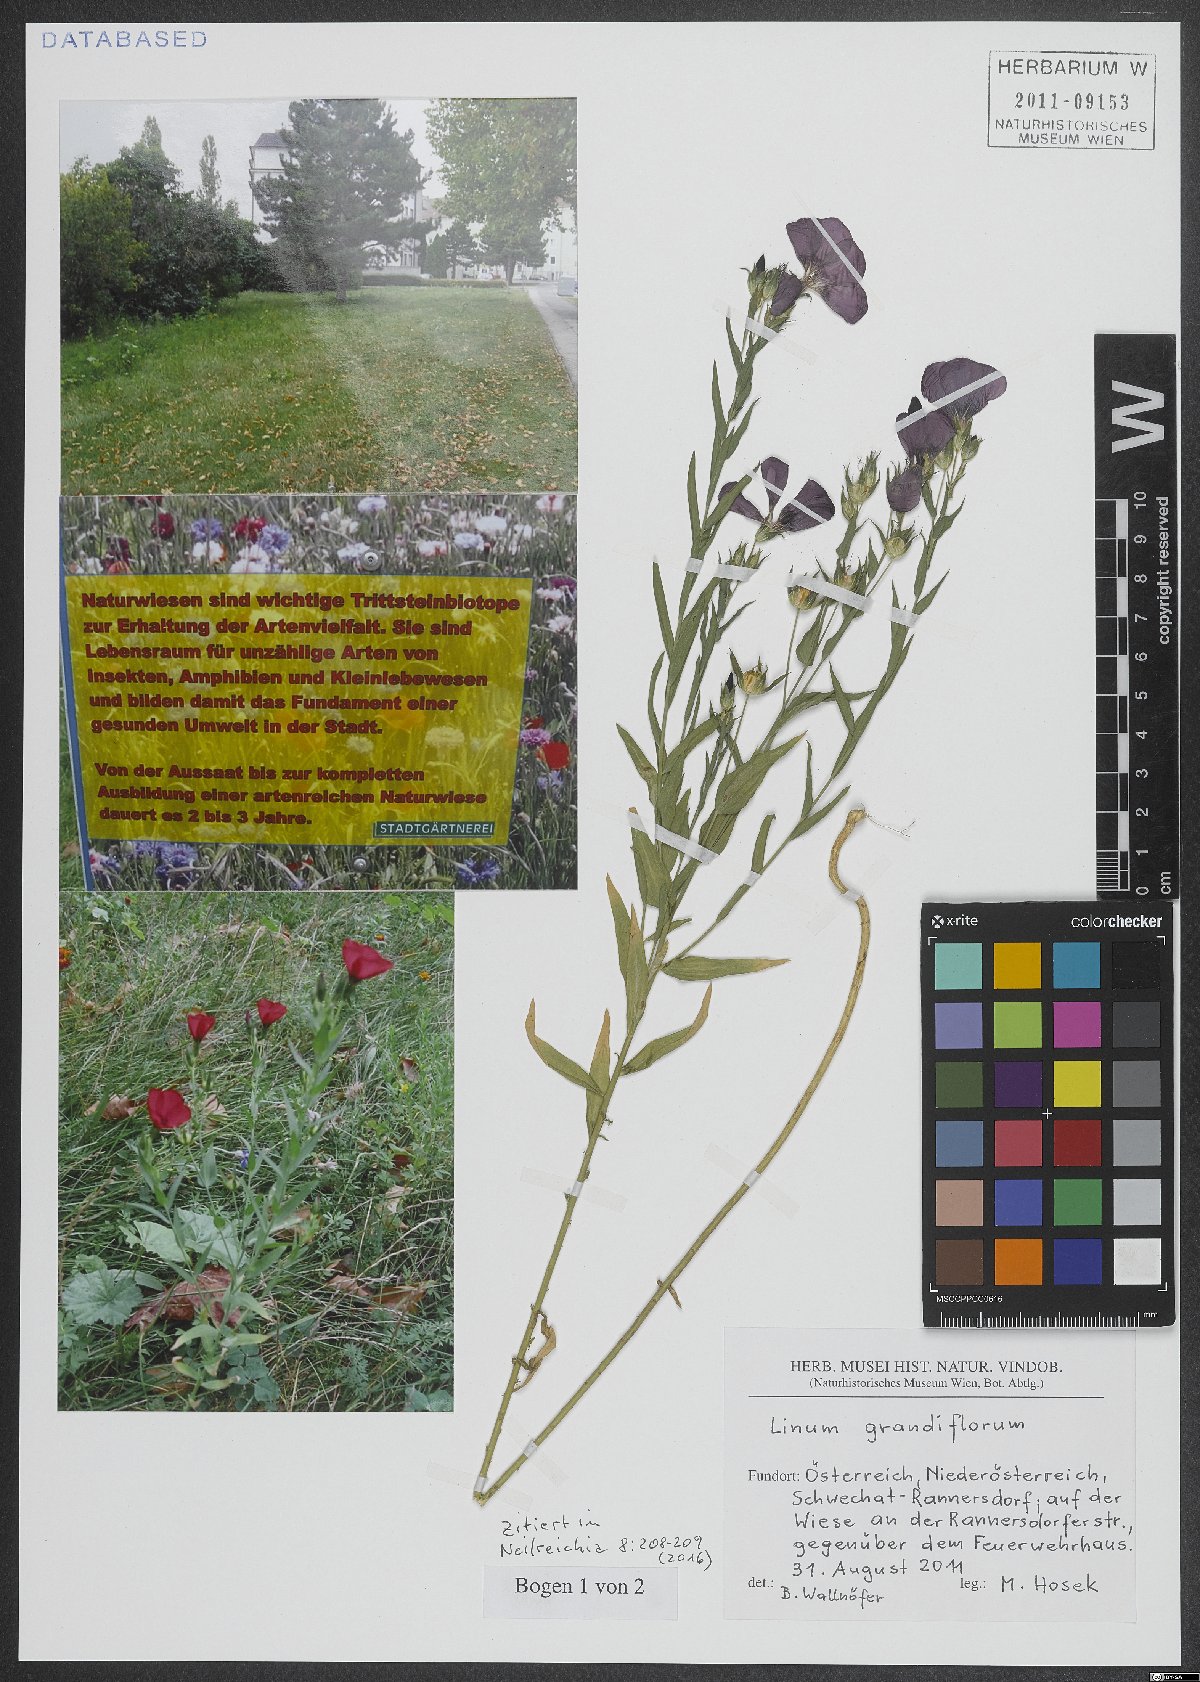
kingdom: Plantae
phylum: Tracheophyta
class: Magnoliopsida
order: Malpighiales
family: Linaceae
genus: Linum
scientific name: Linum grandiflorum
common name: Crimson flax
